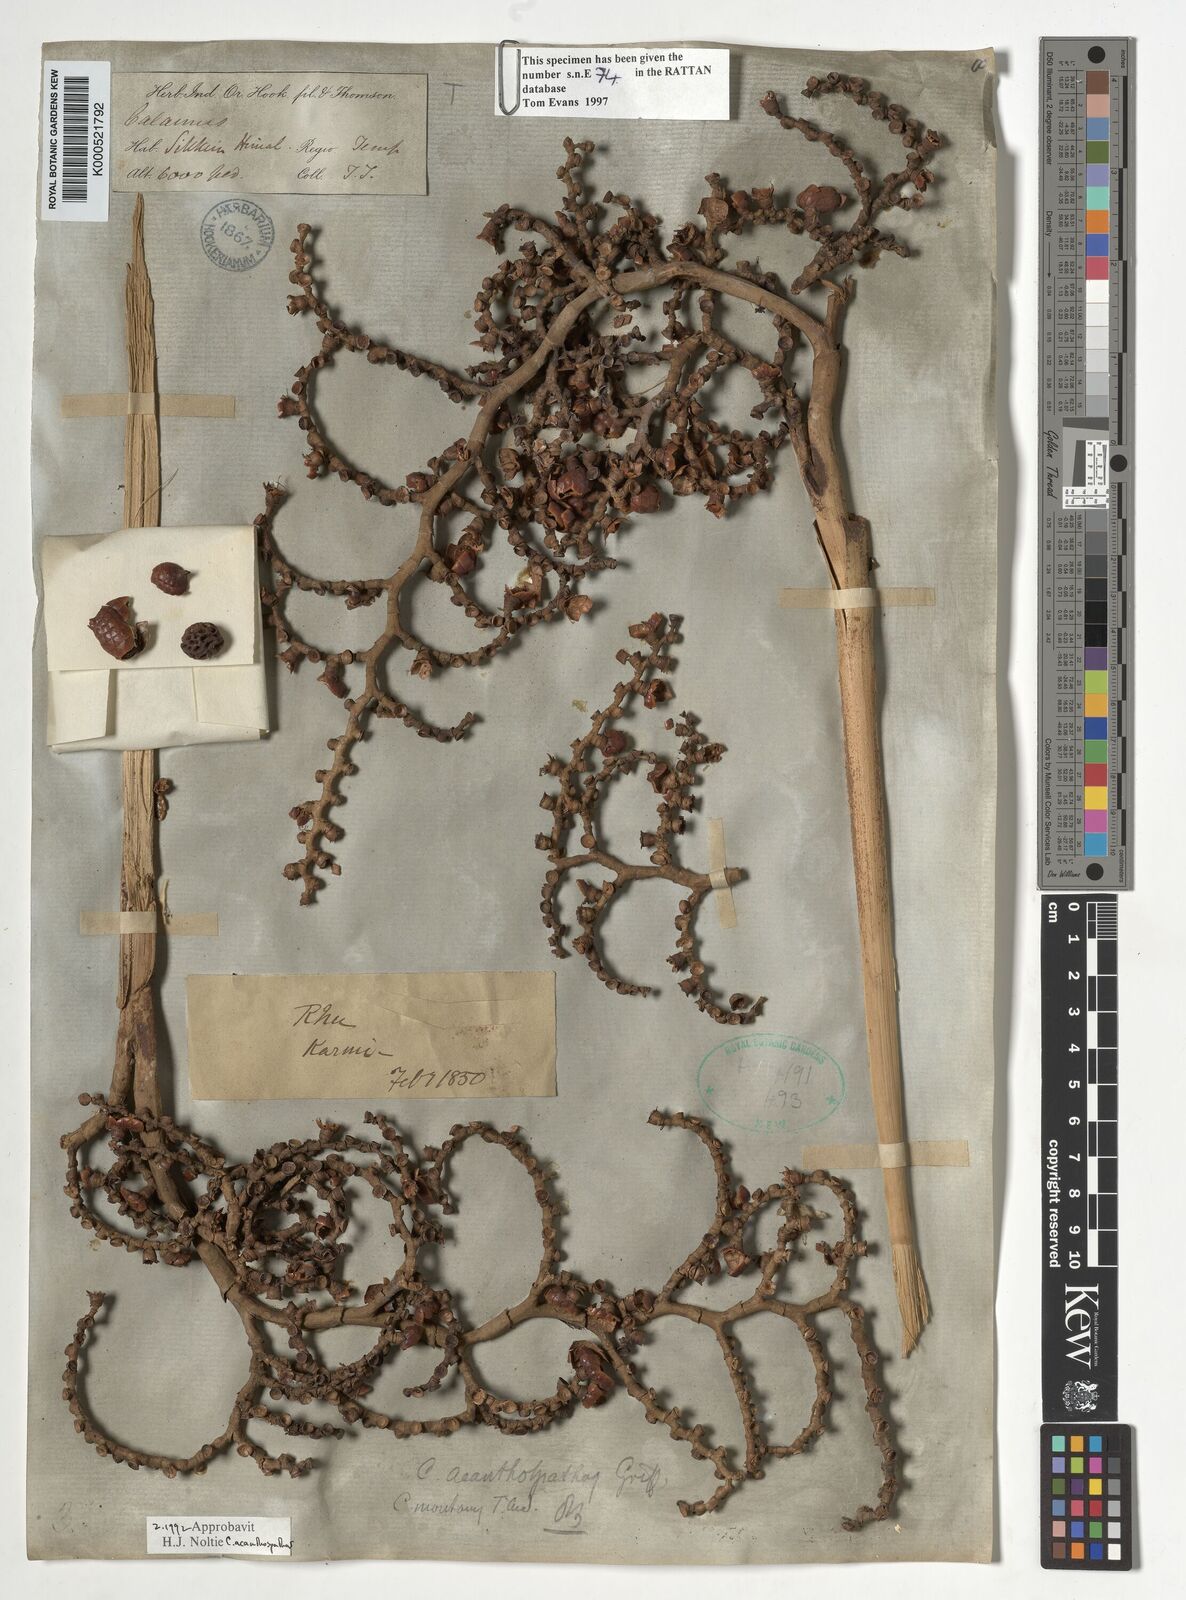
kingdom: Plantae
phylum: Tracheophyta
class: Liliopsida
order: Arecales
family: Arecaceae
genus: Calamus
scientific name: Calamus acanthospathus
